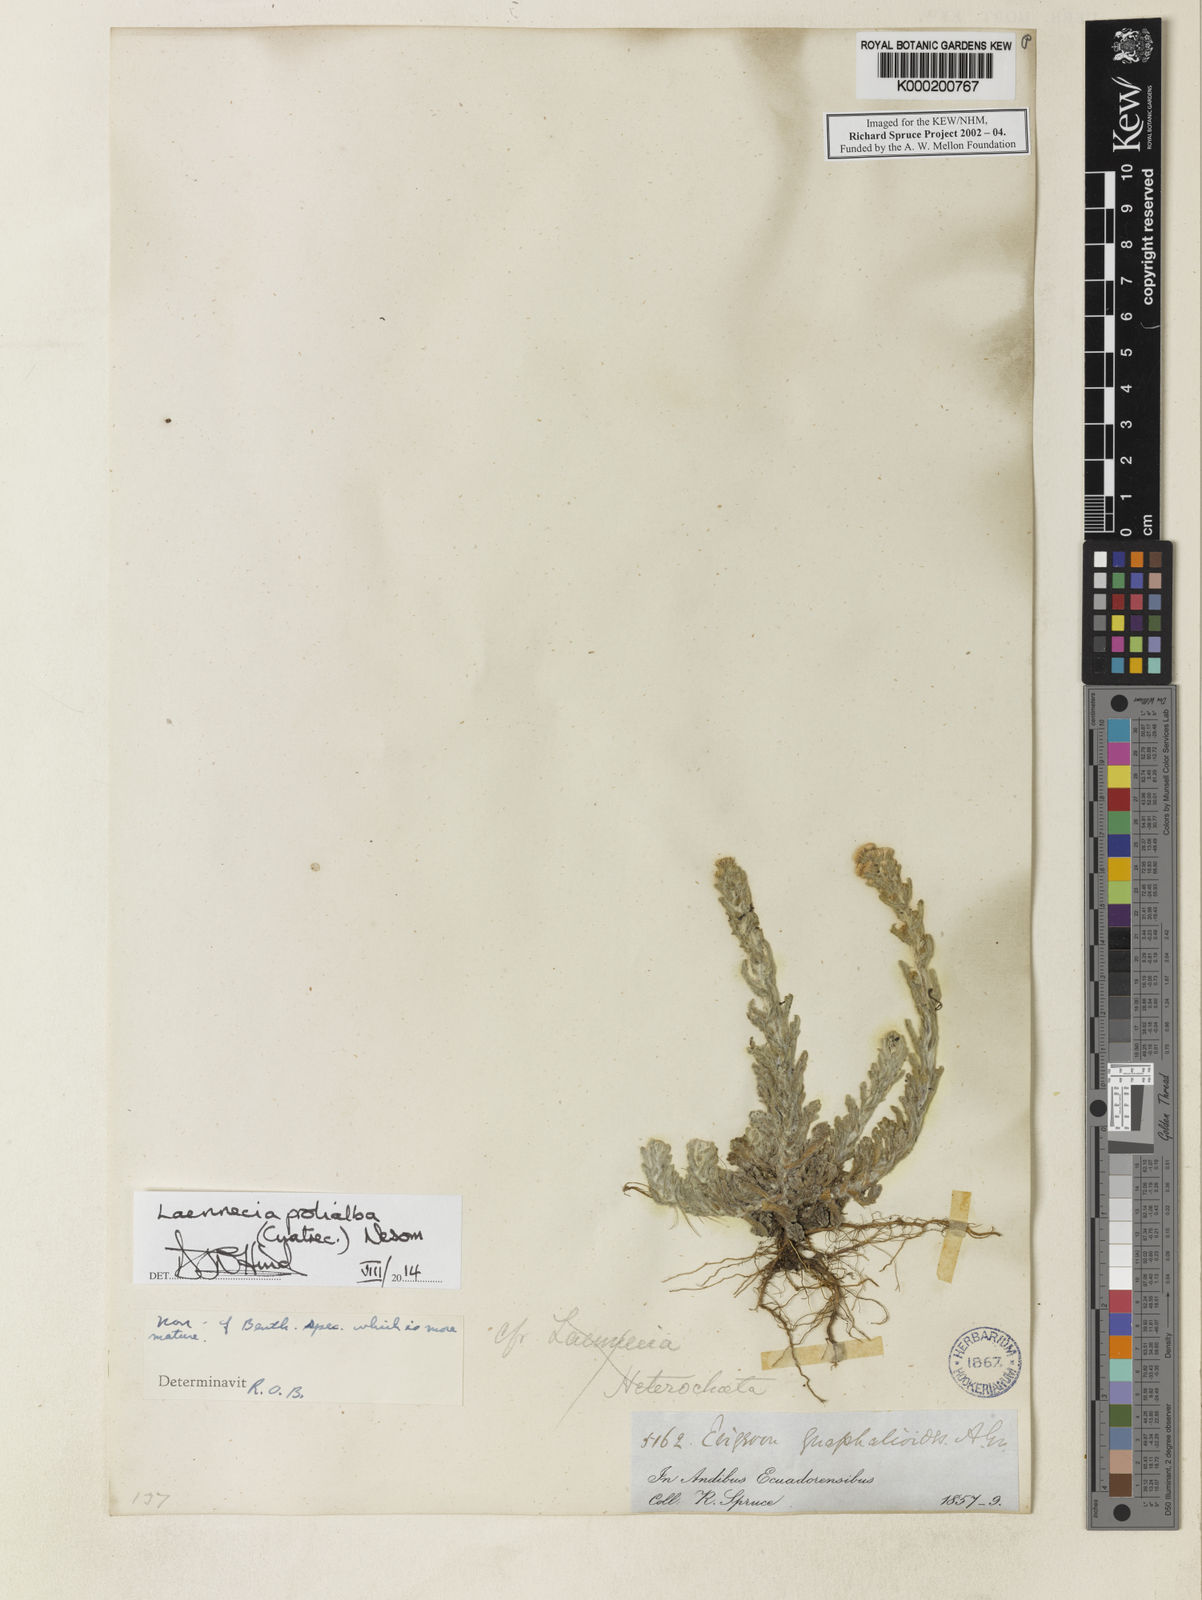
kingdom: Plantae
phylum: Tracheophyta
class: Magnoliopsida
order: Asterales
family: Asteraceae
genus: Laennecia
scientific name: Laennecia confusa
